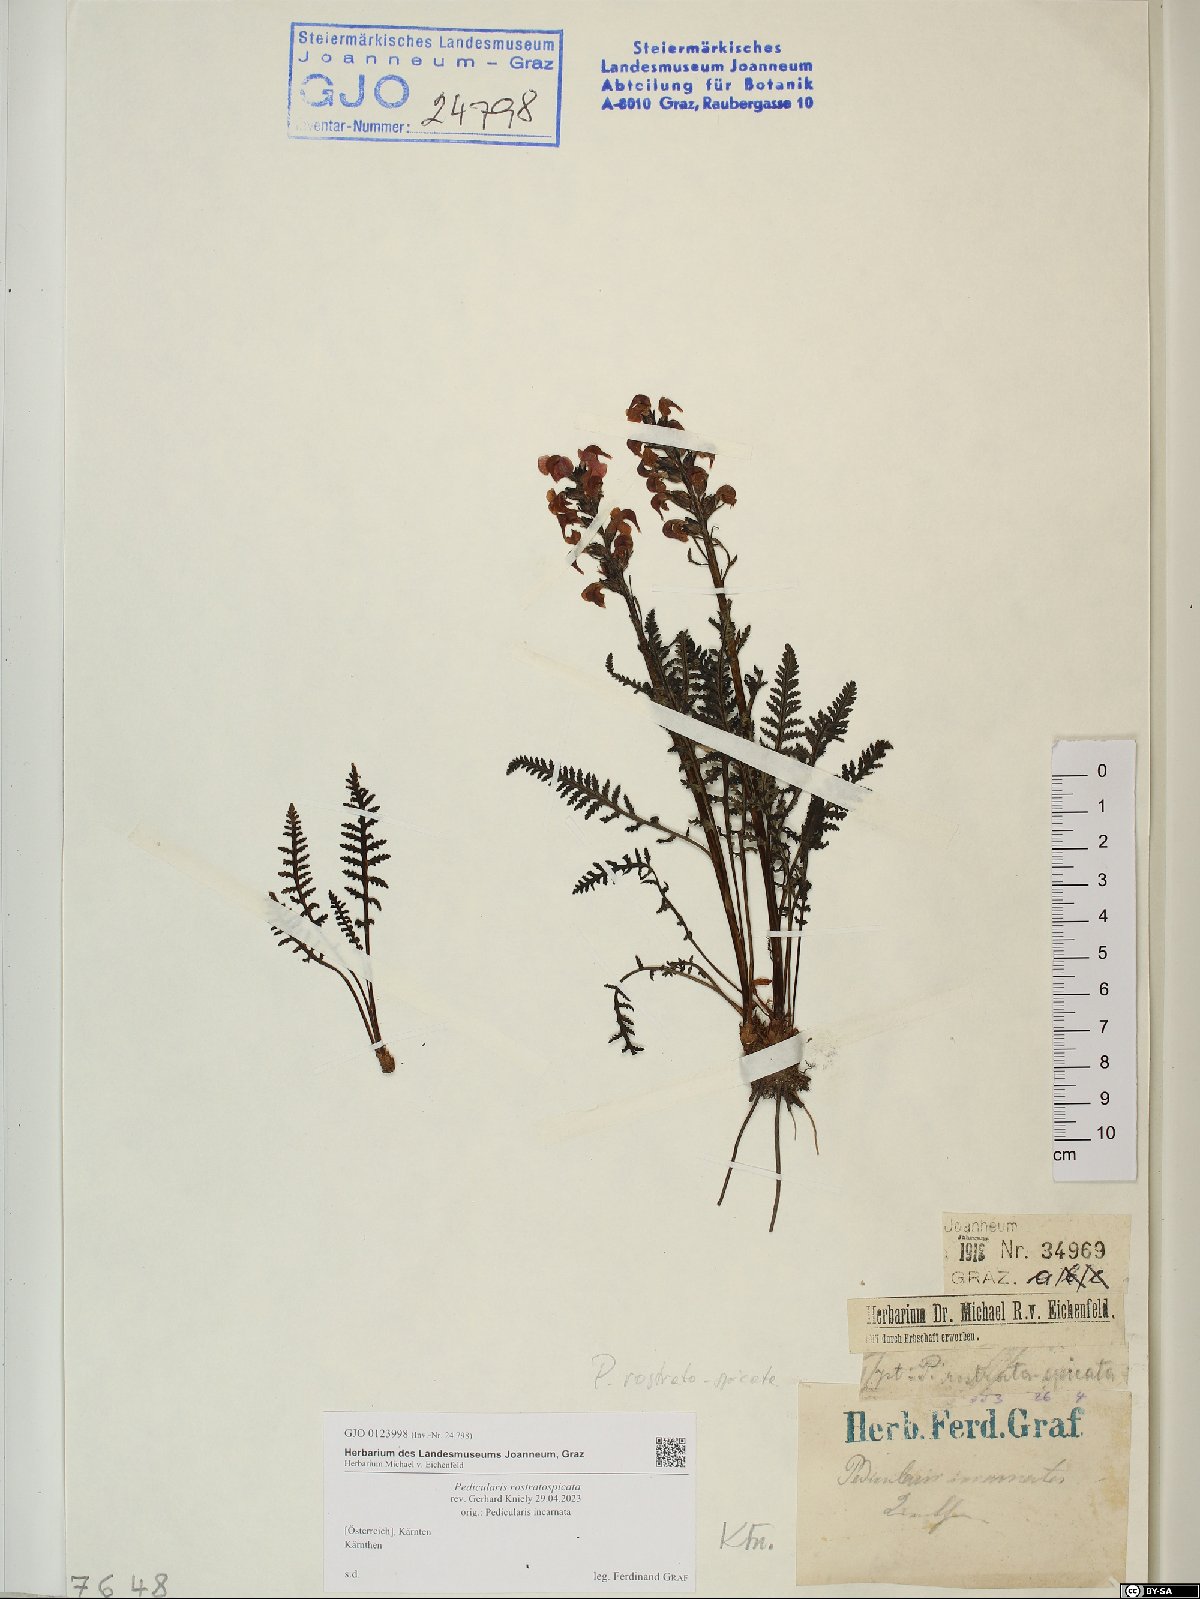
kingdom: Plantae
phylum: Tracheophyta
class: Magnoliopsida
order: Lamiales
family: Orobanchaceae
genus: Pedicularis
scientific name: Pedicularis rostratospicata
